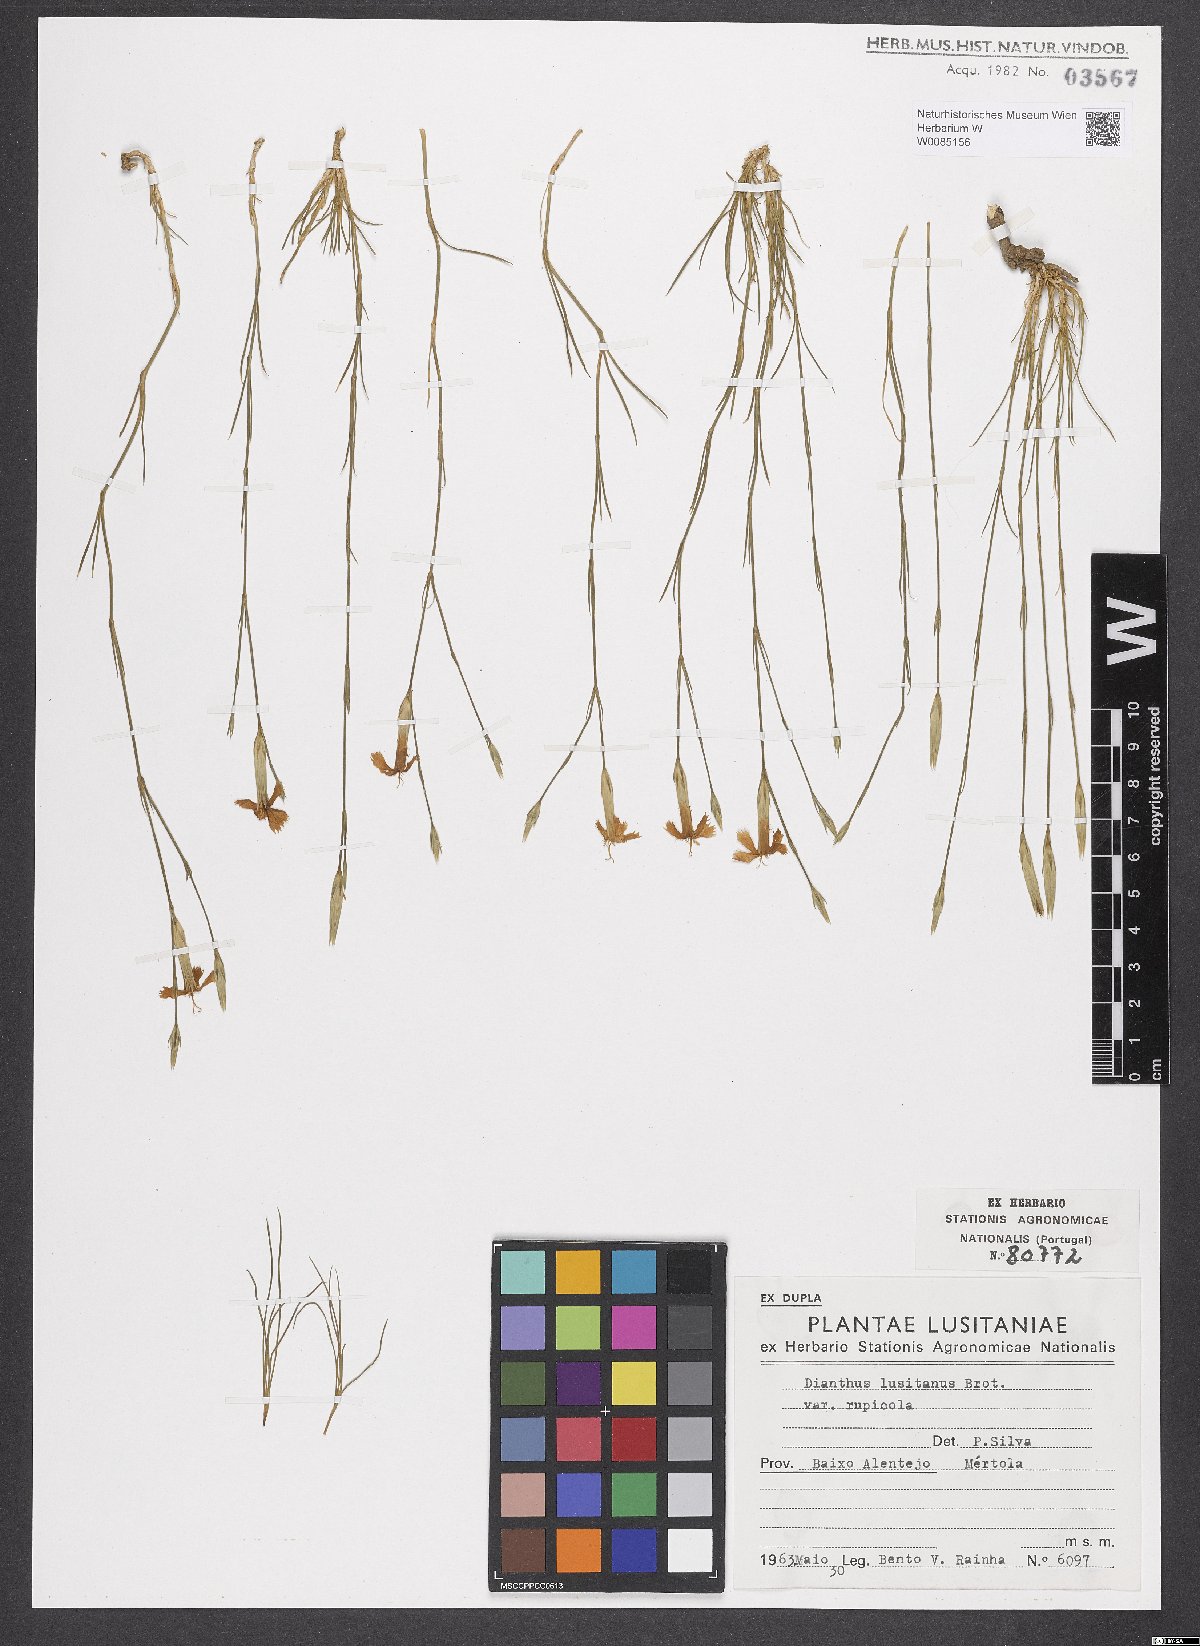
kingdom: Plantae
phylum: Tracheophyta
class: Magnoliopsida
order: Caryophyllales
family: Caryophyllaceae
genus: Dianthus
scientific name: Dianthus lusitanus
